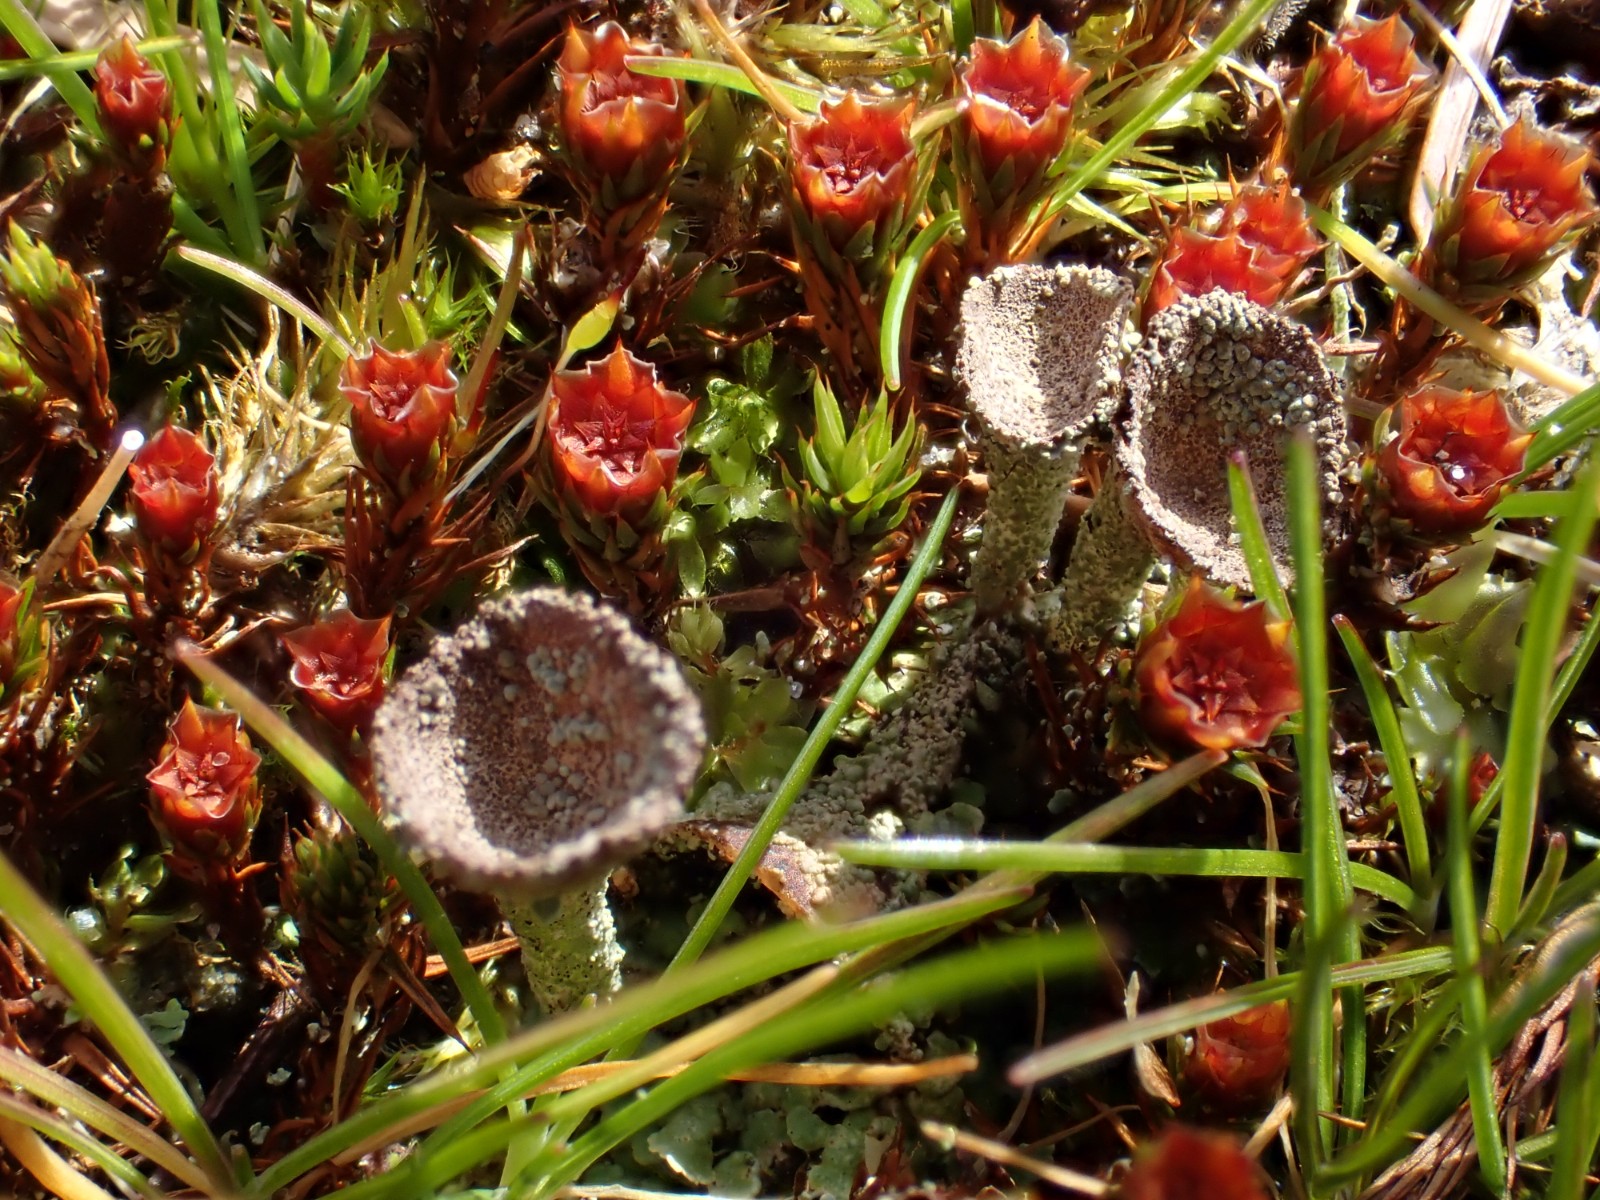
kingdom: Fungi
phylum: Ascomycota
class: Lecanoromycetes
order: Lecanorales
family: Cladoniaceae
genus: Cladonia
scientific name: Cladonia pyxidata
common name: tragt-bægerlav
